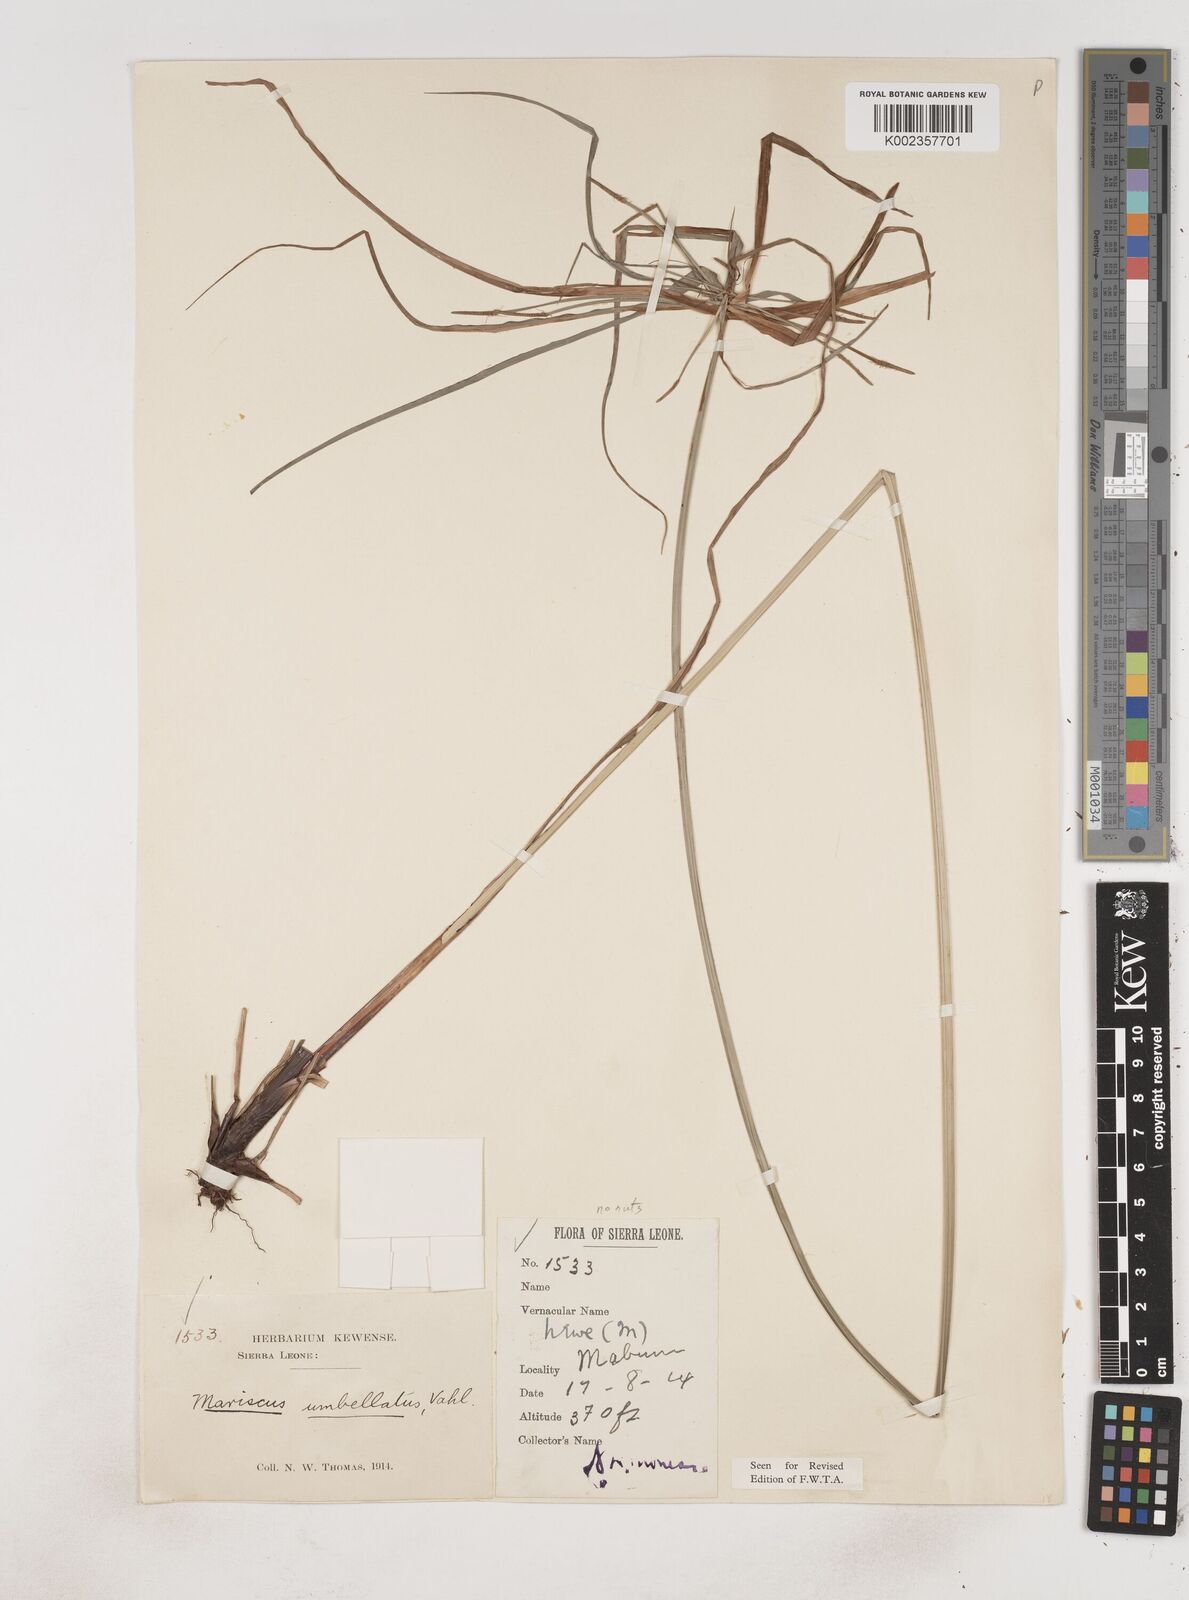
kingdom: Plantae
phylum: Tracheophyta
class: Liliopsida
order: Poales
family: Cyperaceae
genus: Cyperus
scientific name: Cyperus sublimis
